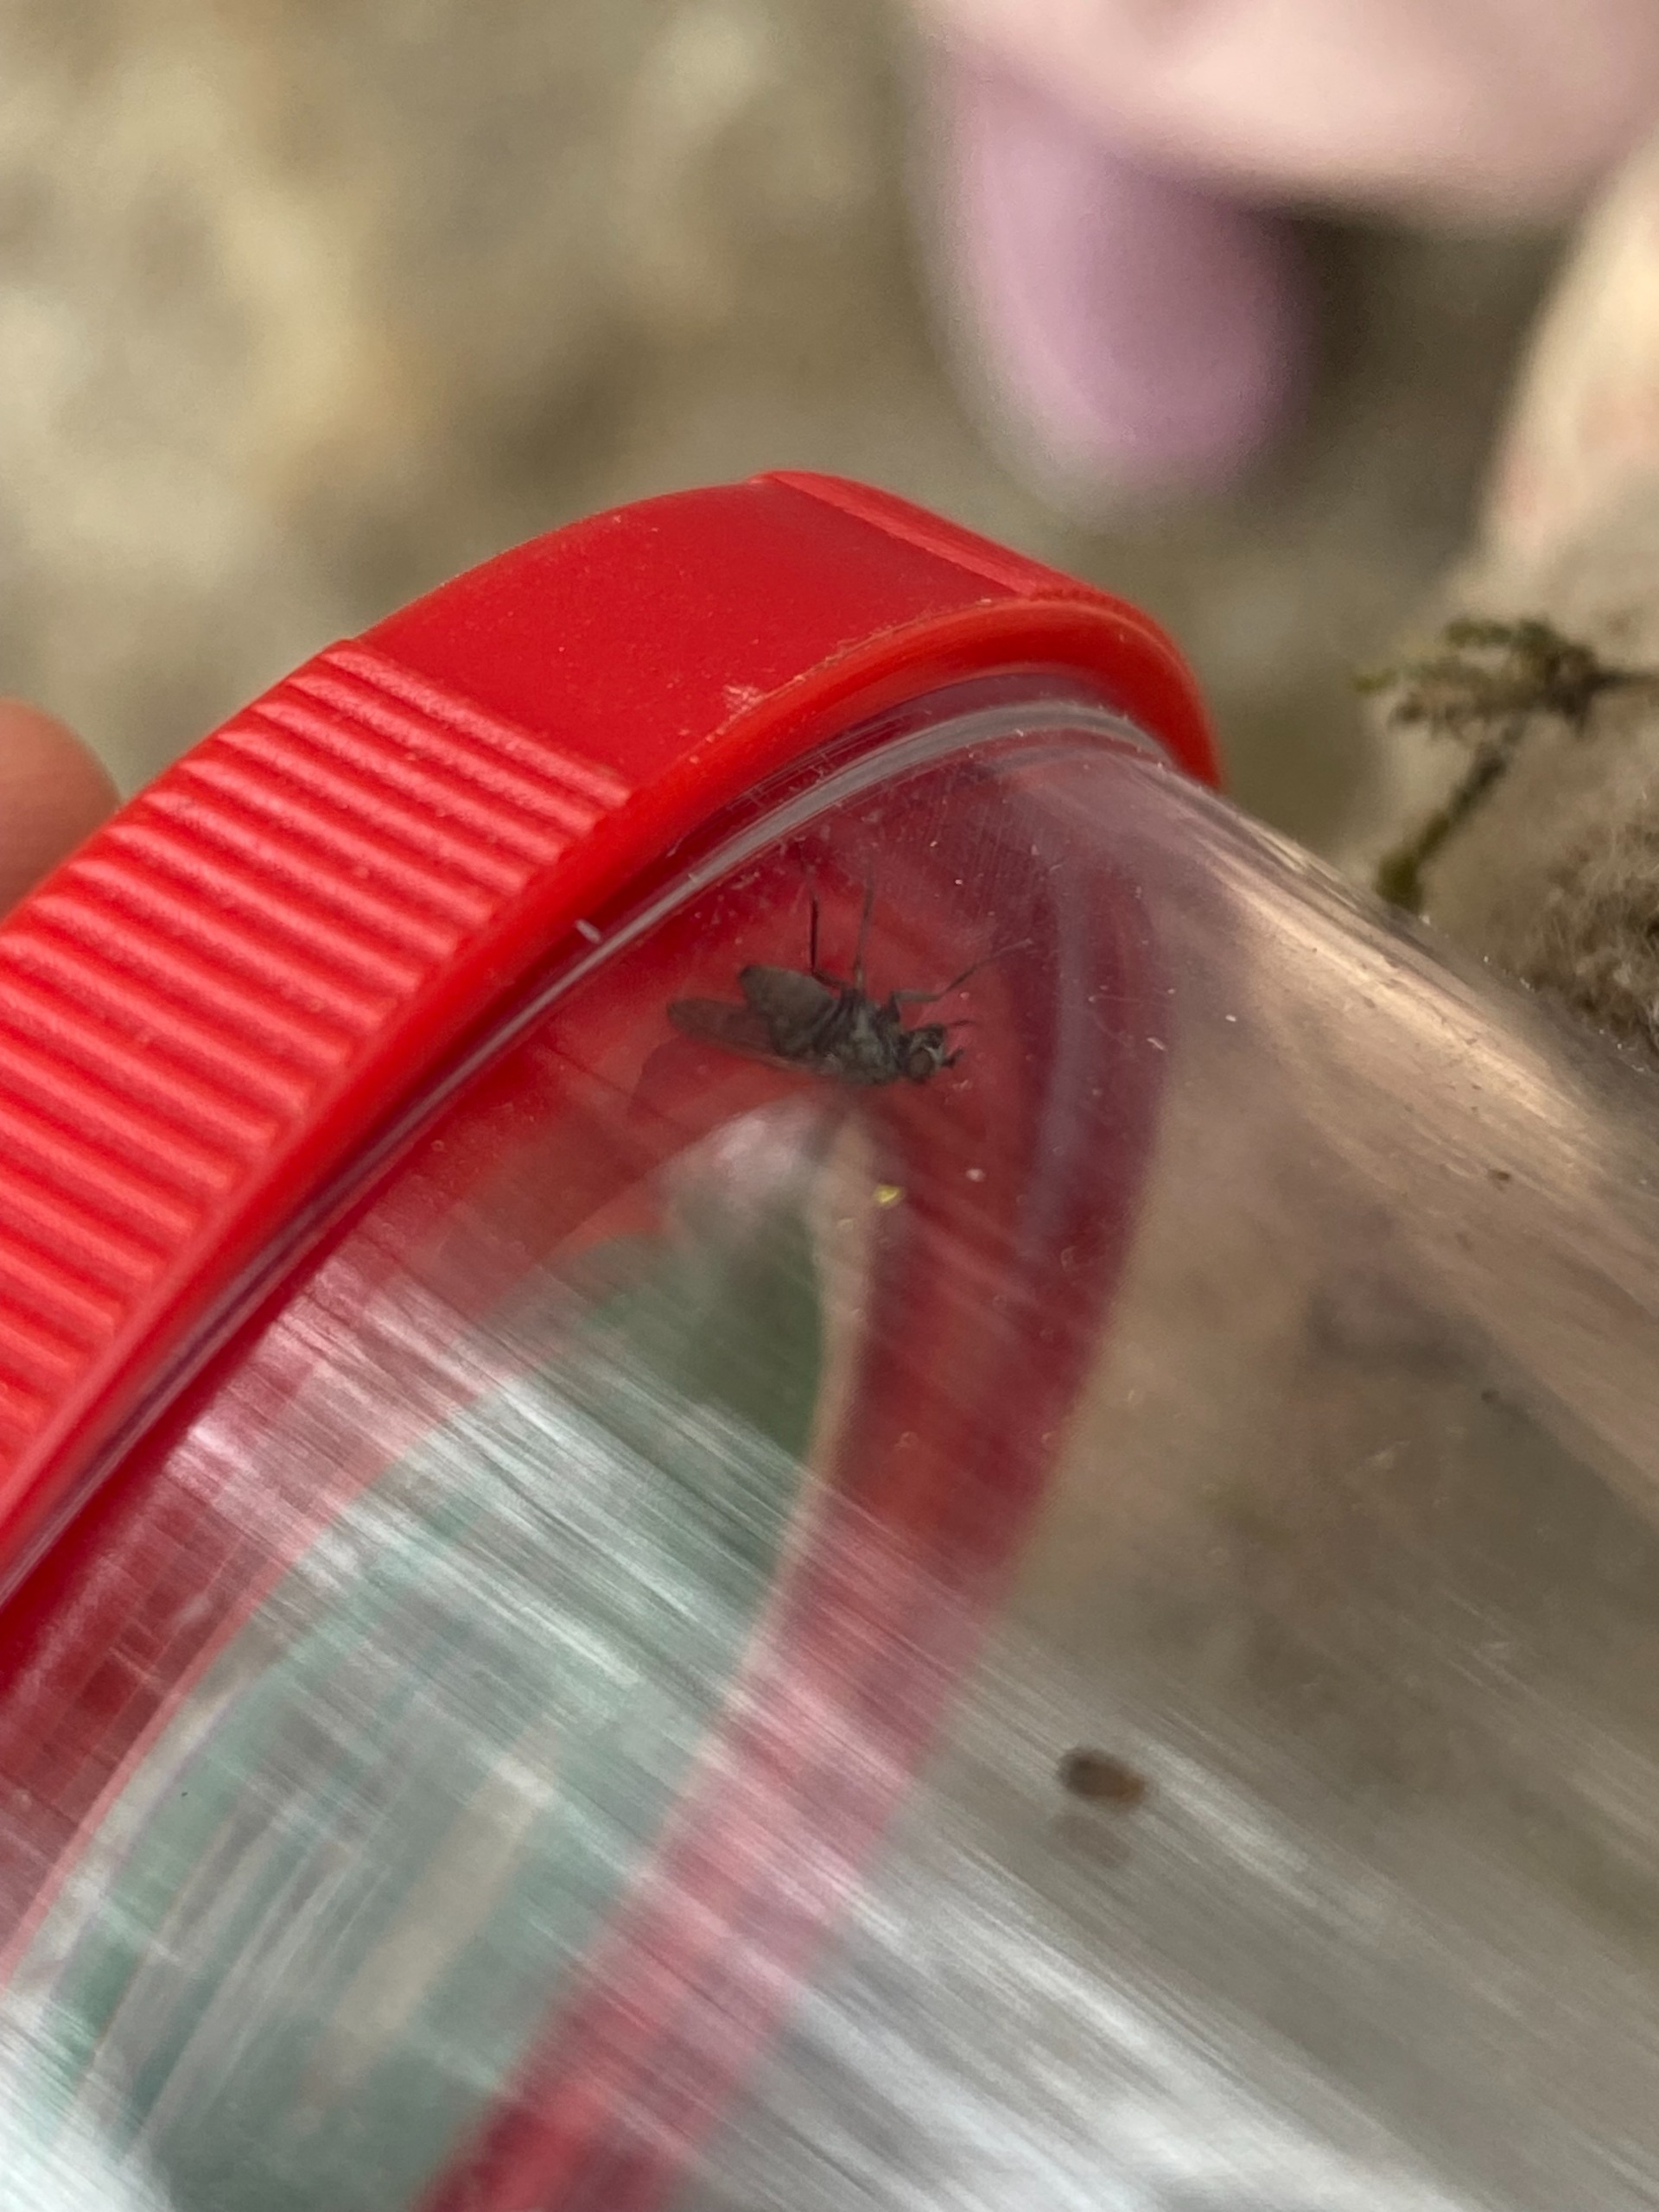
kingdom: Animalia
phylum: Arthropoda
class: Insecta
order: Diptera
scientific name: Diptera
